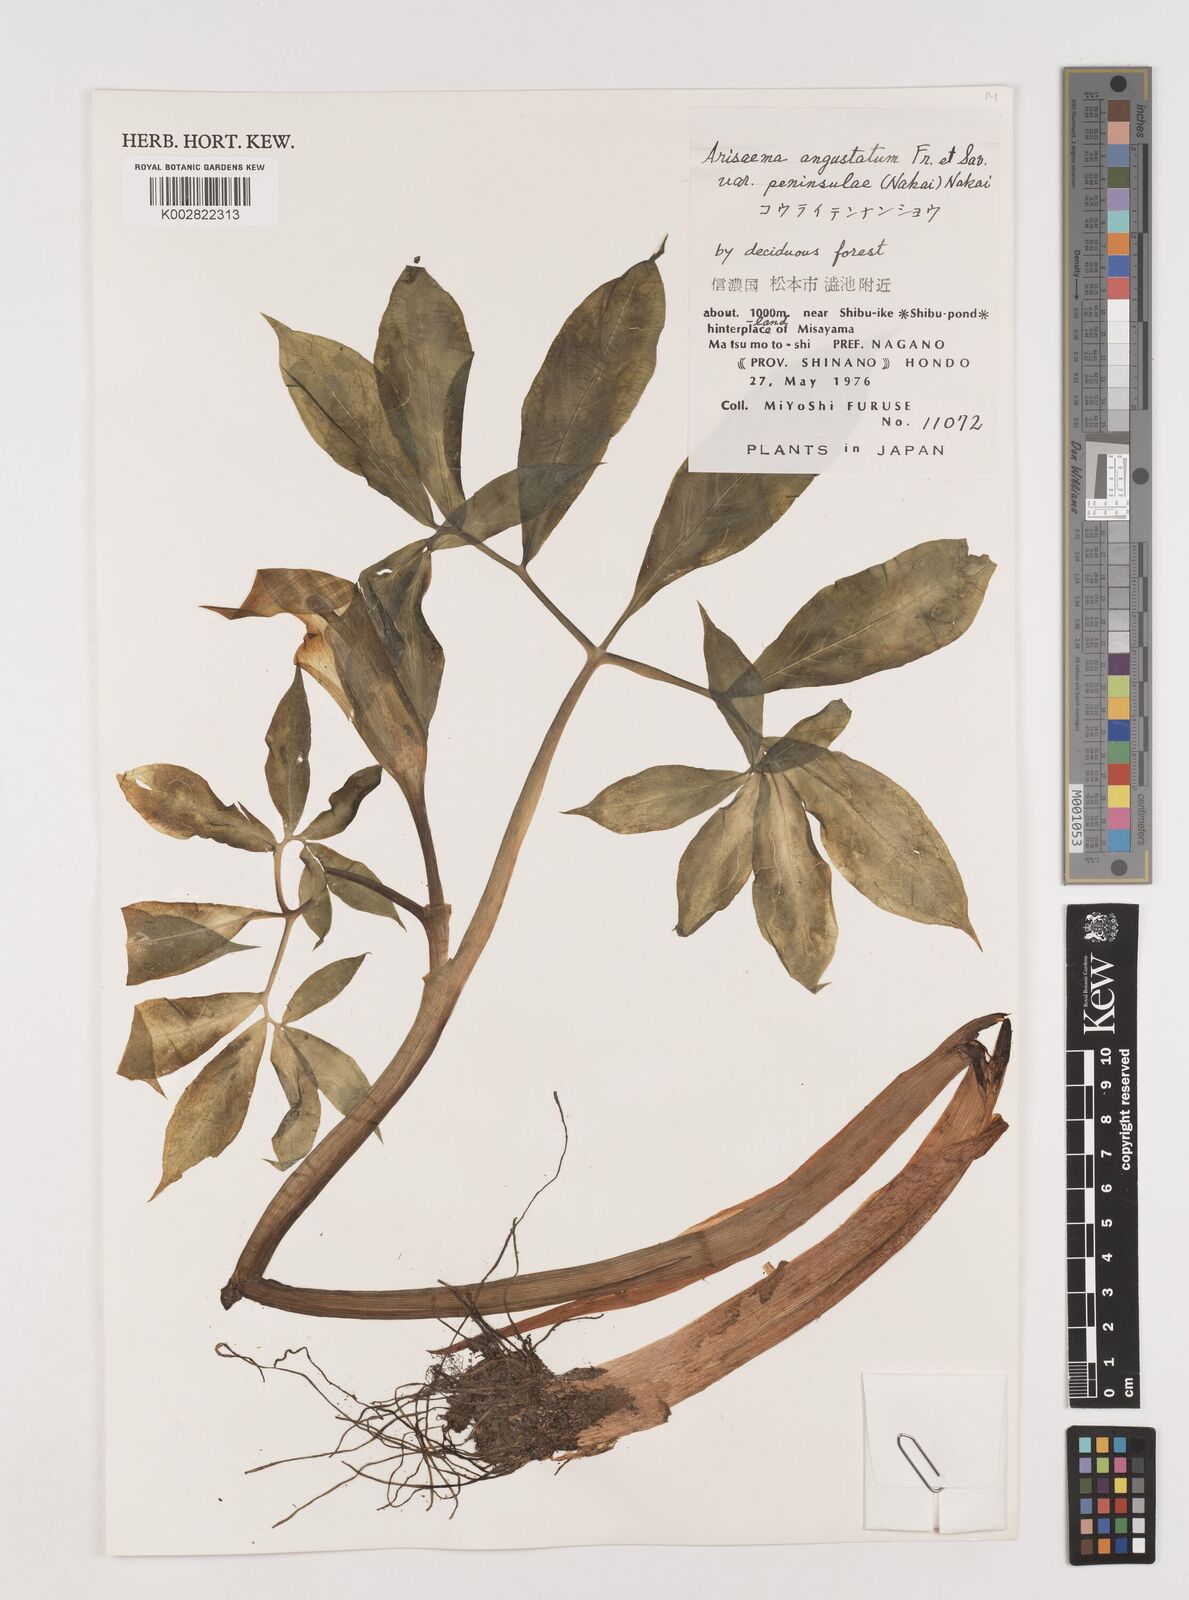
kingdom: Plantae
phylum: Tracheophyta
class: Liliopsida
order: Alismatales
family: Araceae
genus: Arisaema
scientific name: Arisaema angustatum
